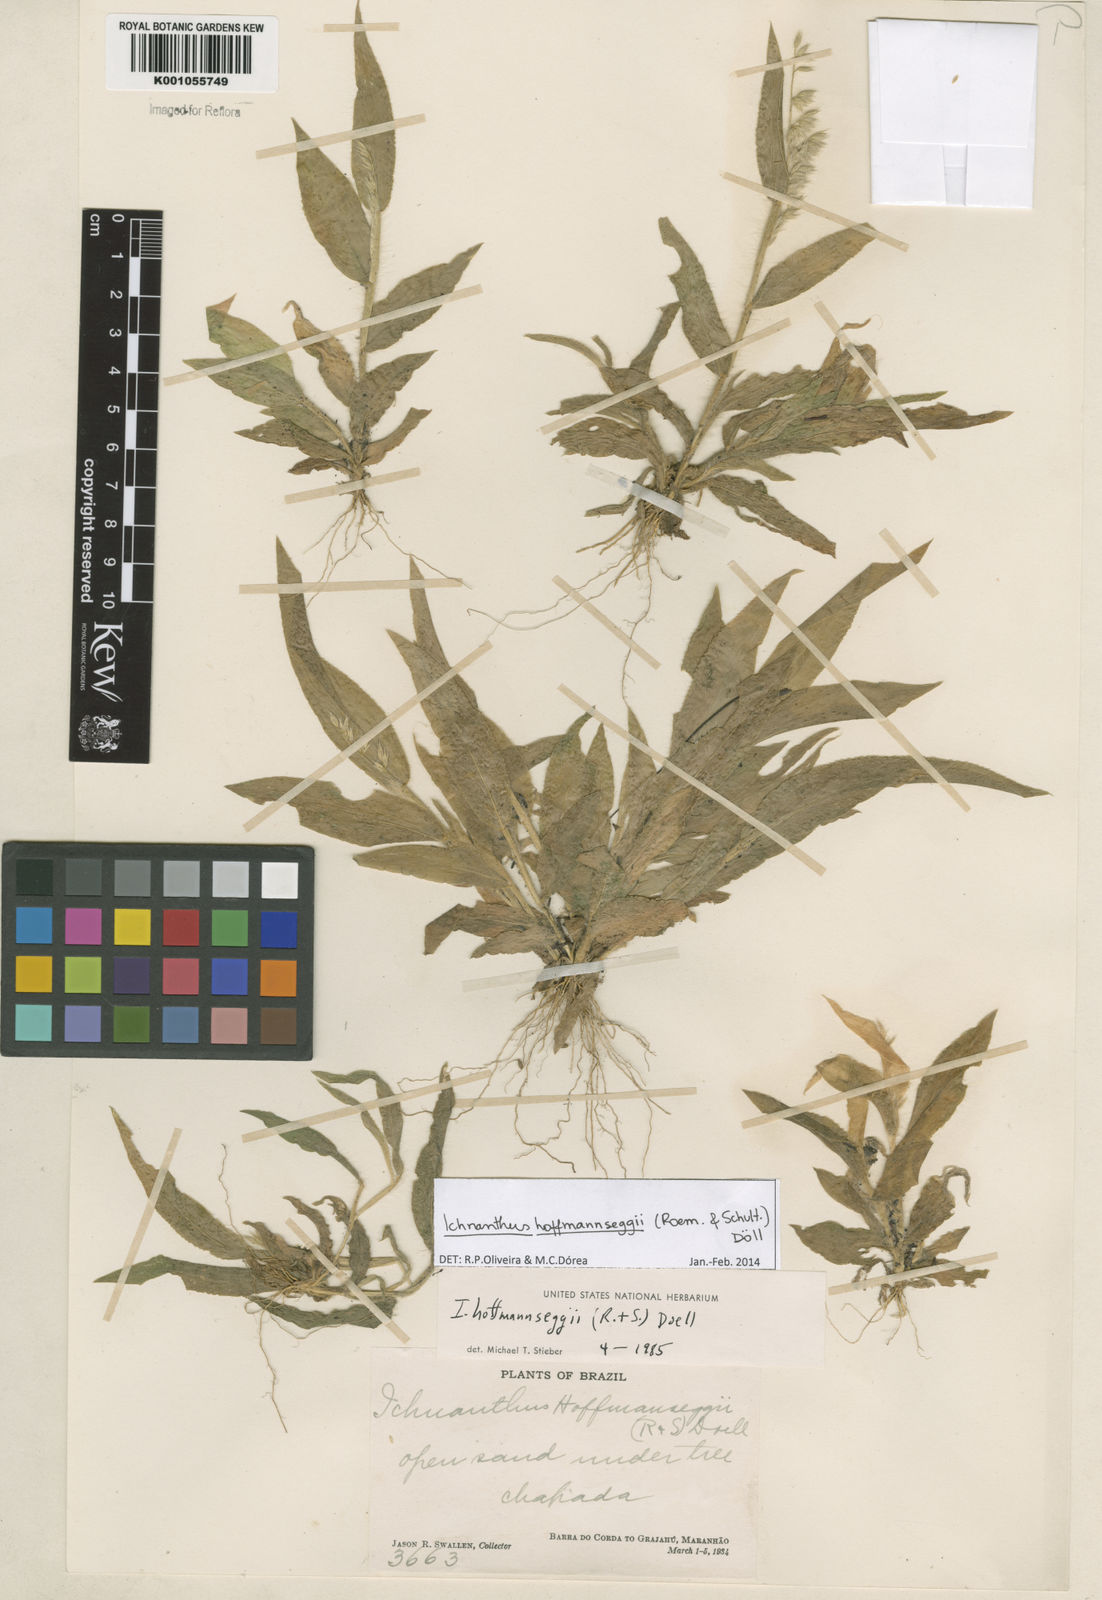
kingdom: Plantae
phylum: Tracheophyta
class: Liliopsida
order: Poales
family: Poaceae
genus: Ichnanthus
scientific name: Ichnanthus
